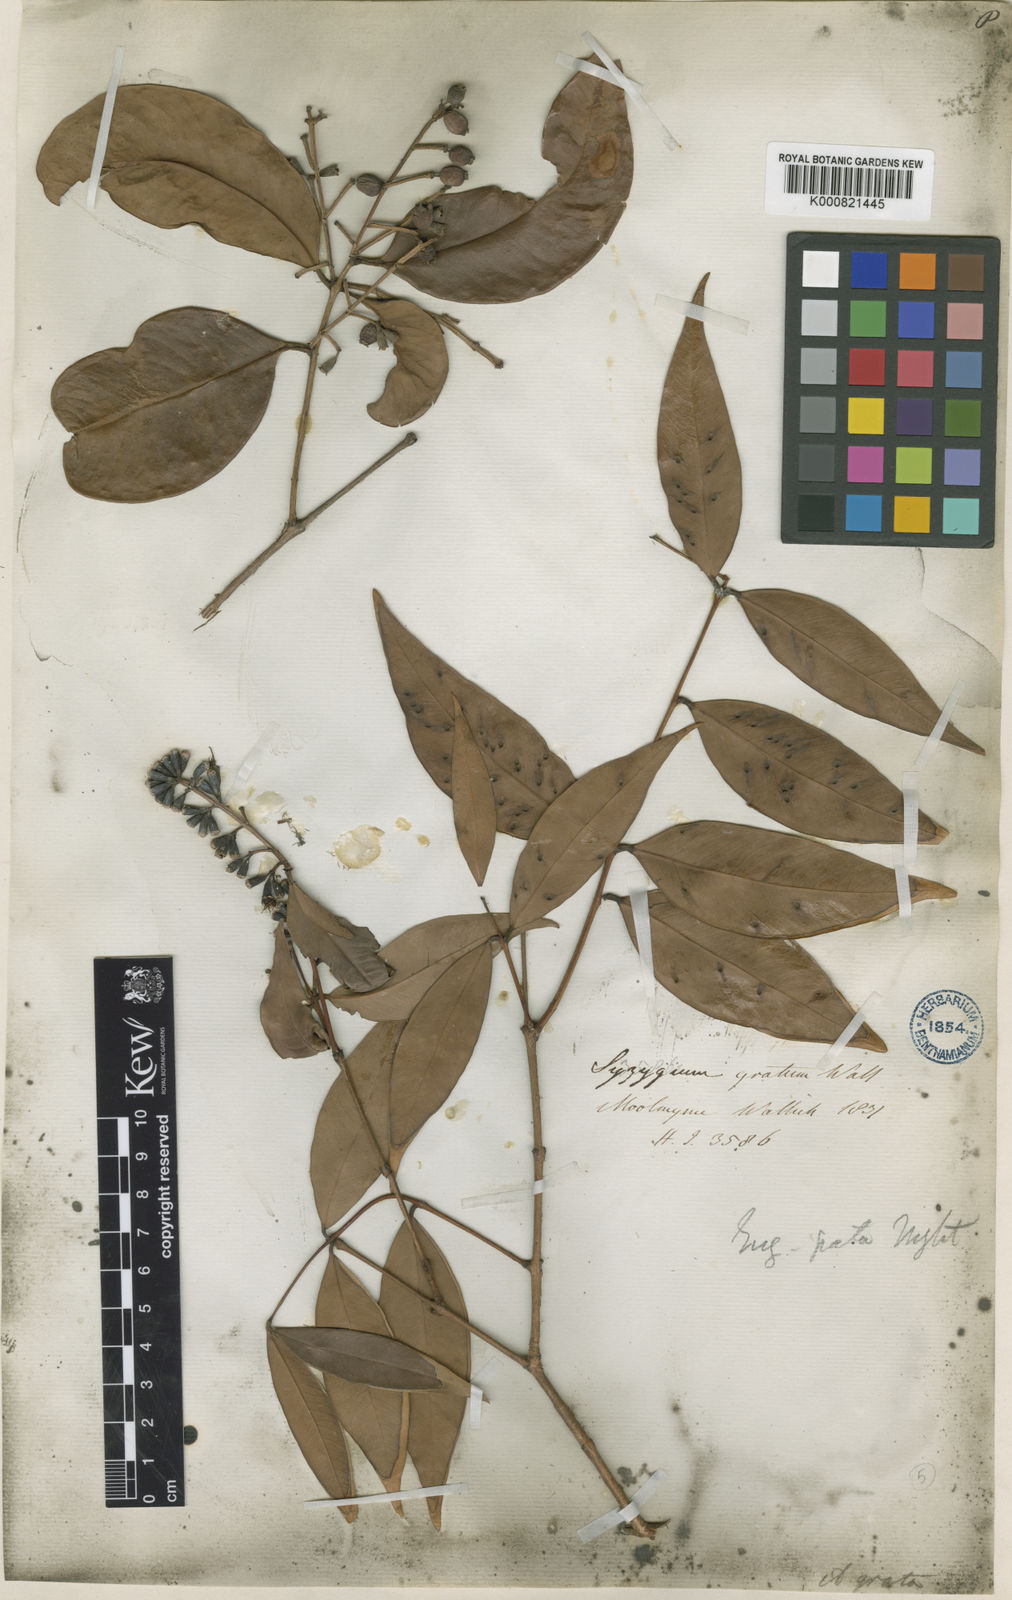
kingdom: Plantae
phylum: Tracheophyta
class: Magnoliopsida
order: Myrtales
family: Myrtaceae
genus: Syzygium
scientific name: Syzygium
